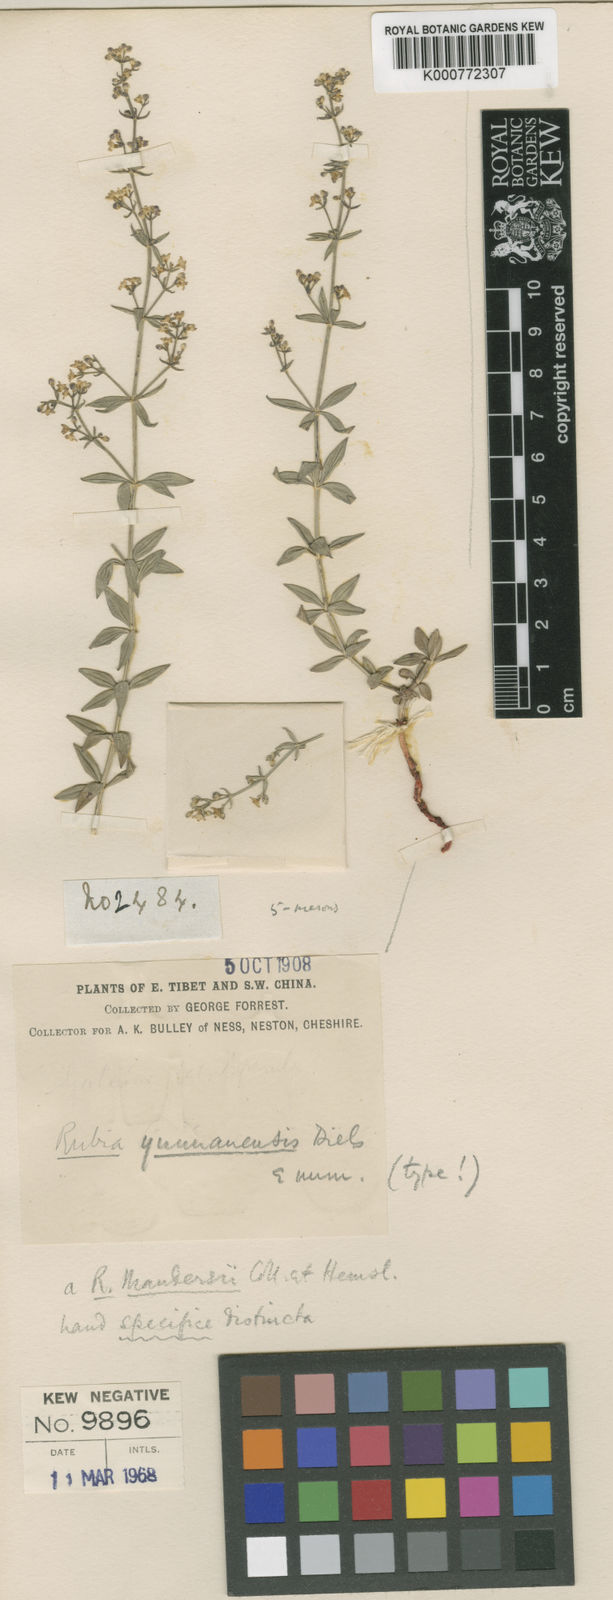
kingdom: Plantae
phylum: Tracheophyta
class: Magnoliopsida
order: Gentianales
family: Rubiaceae
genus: Rubia
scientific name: Rubia yunnanensis
